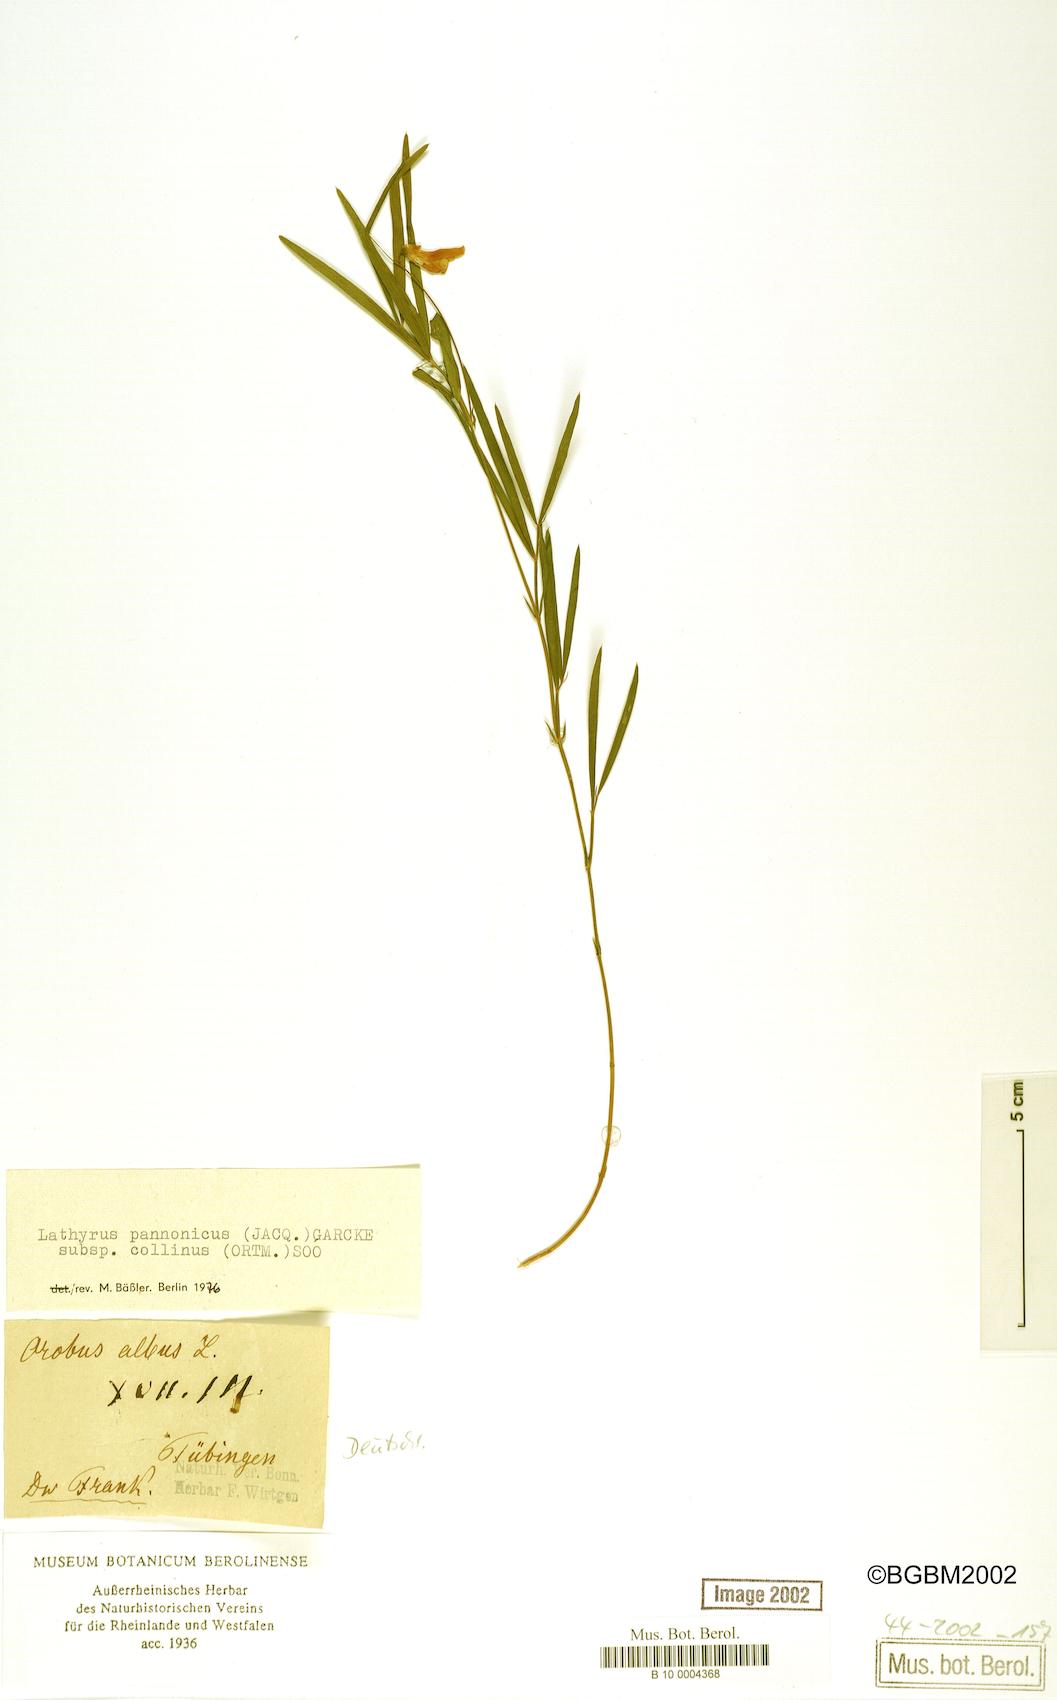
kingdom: Plantae
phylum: Tracheophyta
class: Magnoliopsida
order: Fabales
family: Fabaceae
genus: Lathyrus
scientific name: Lathyrus pannonicus
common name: Pea
